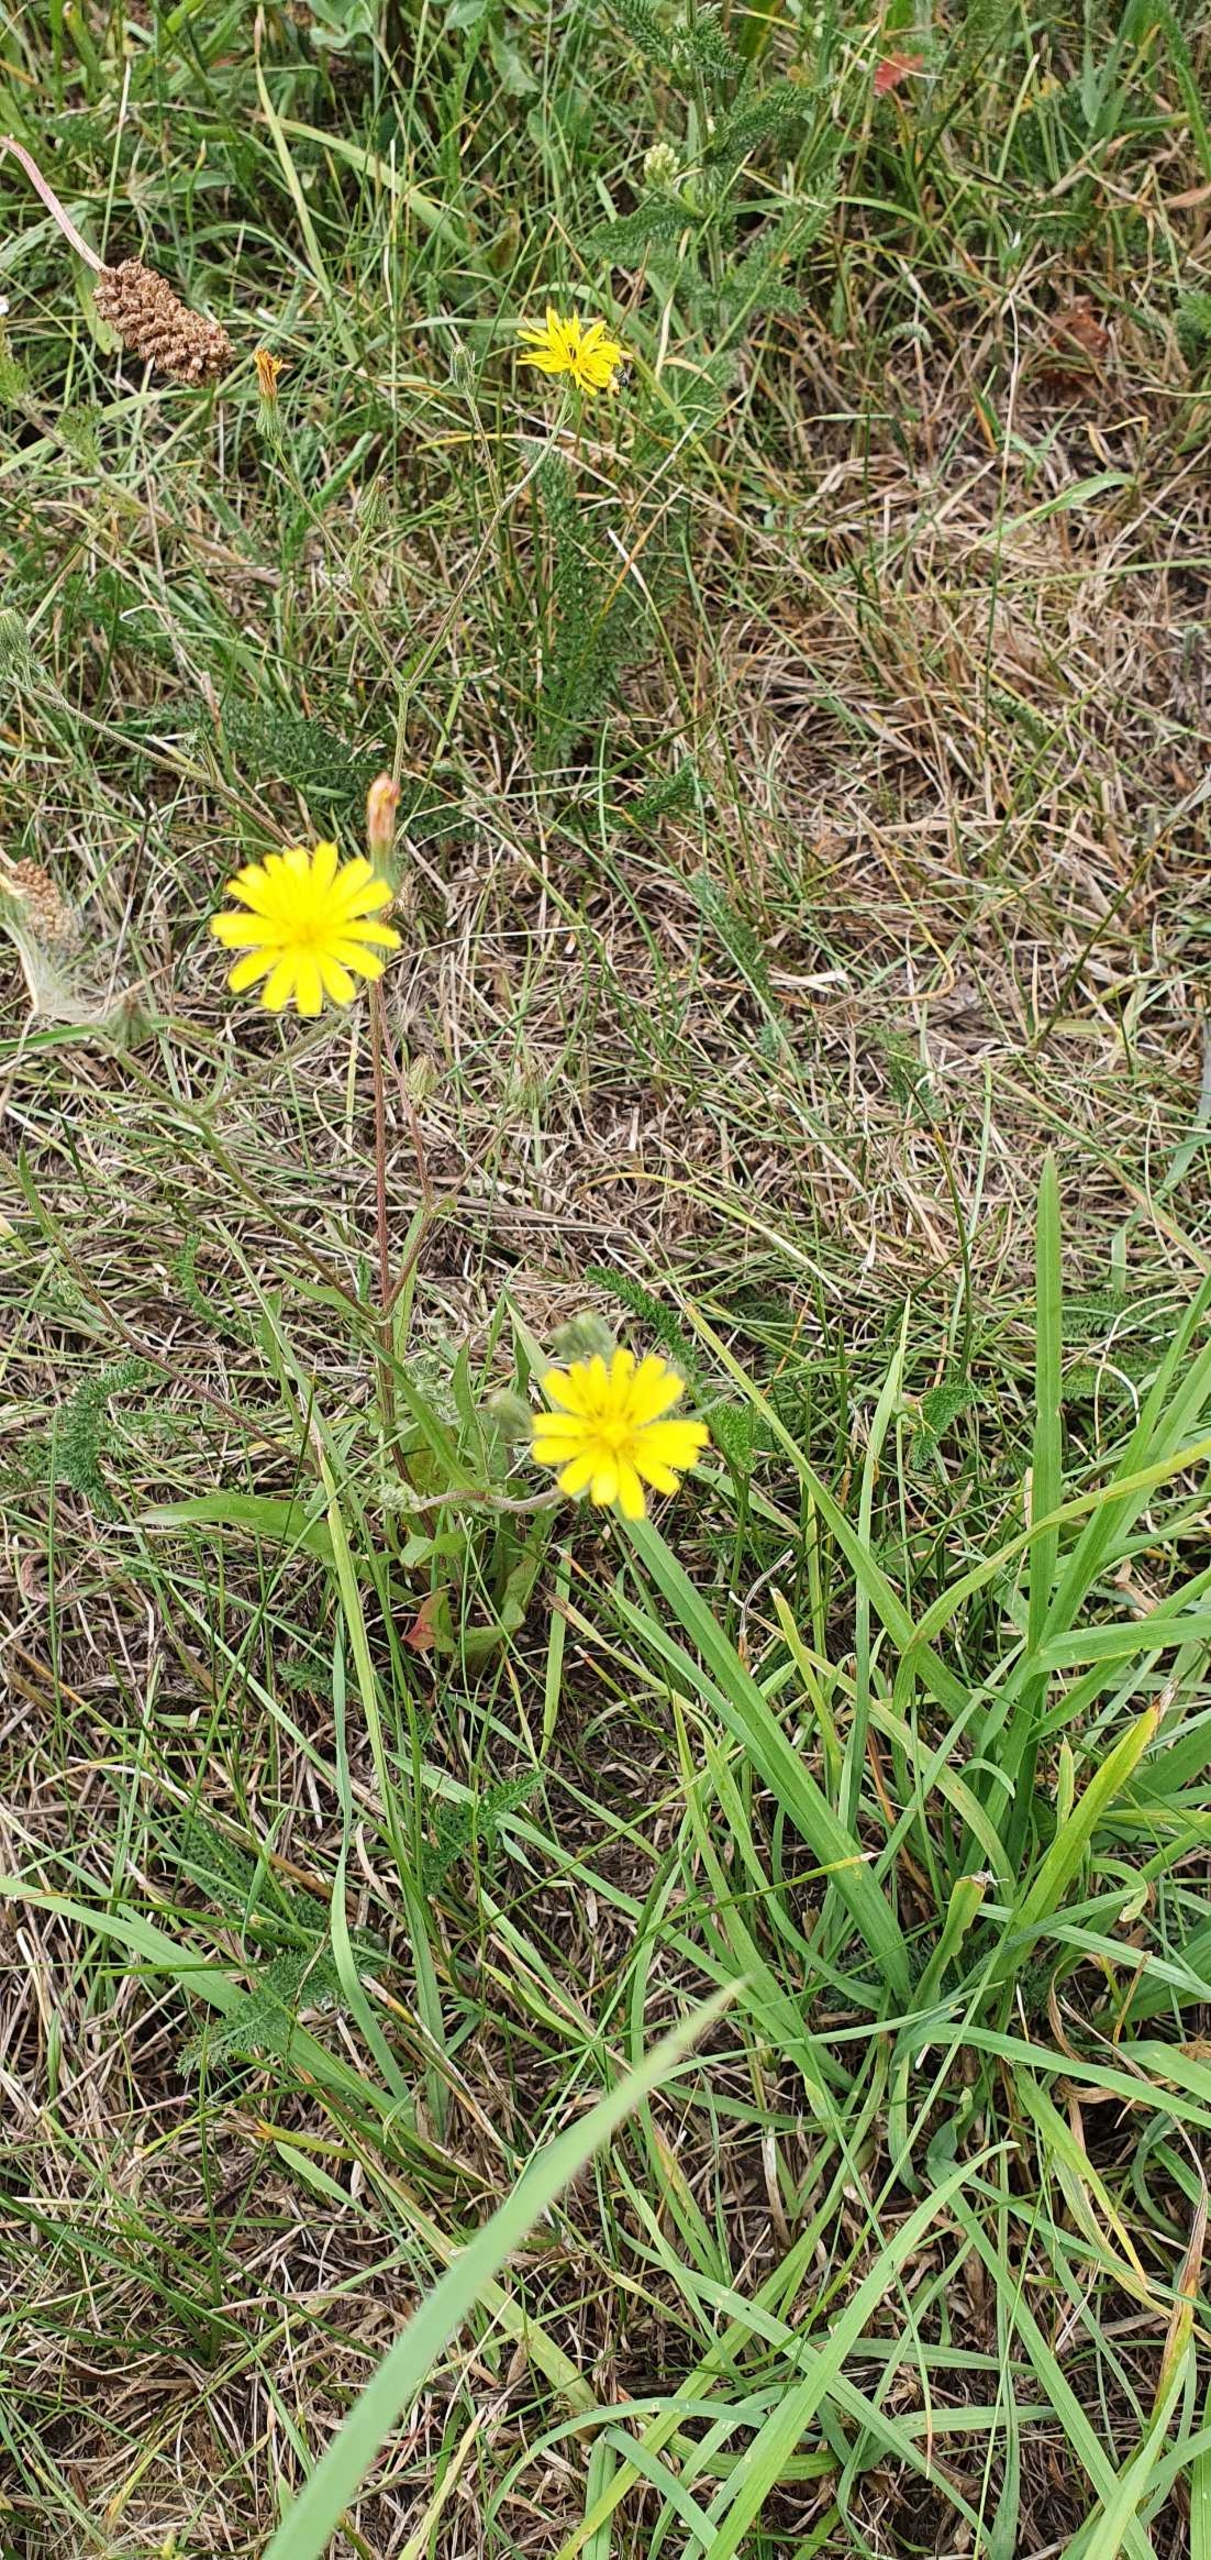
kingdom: Plantae
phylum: Tracheophyta
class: Magnoliopsida
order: Asterales
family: Asteraceae
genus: Crepis
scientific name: Crepis capillaris
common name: Grøn høgeskæg
